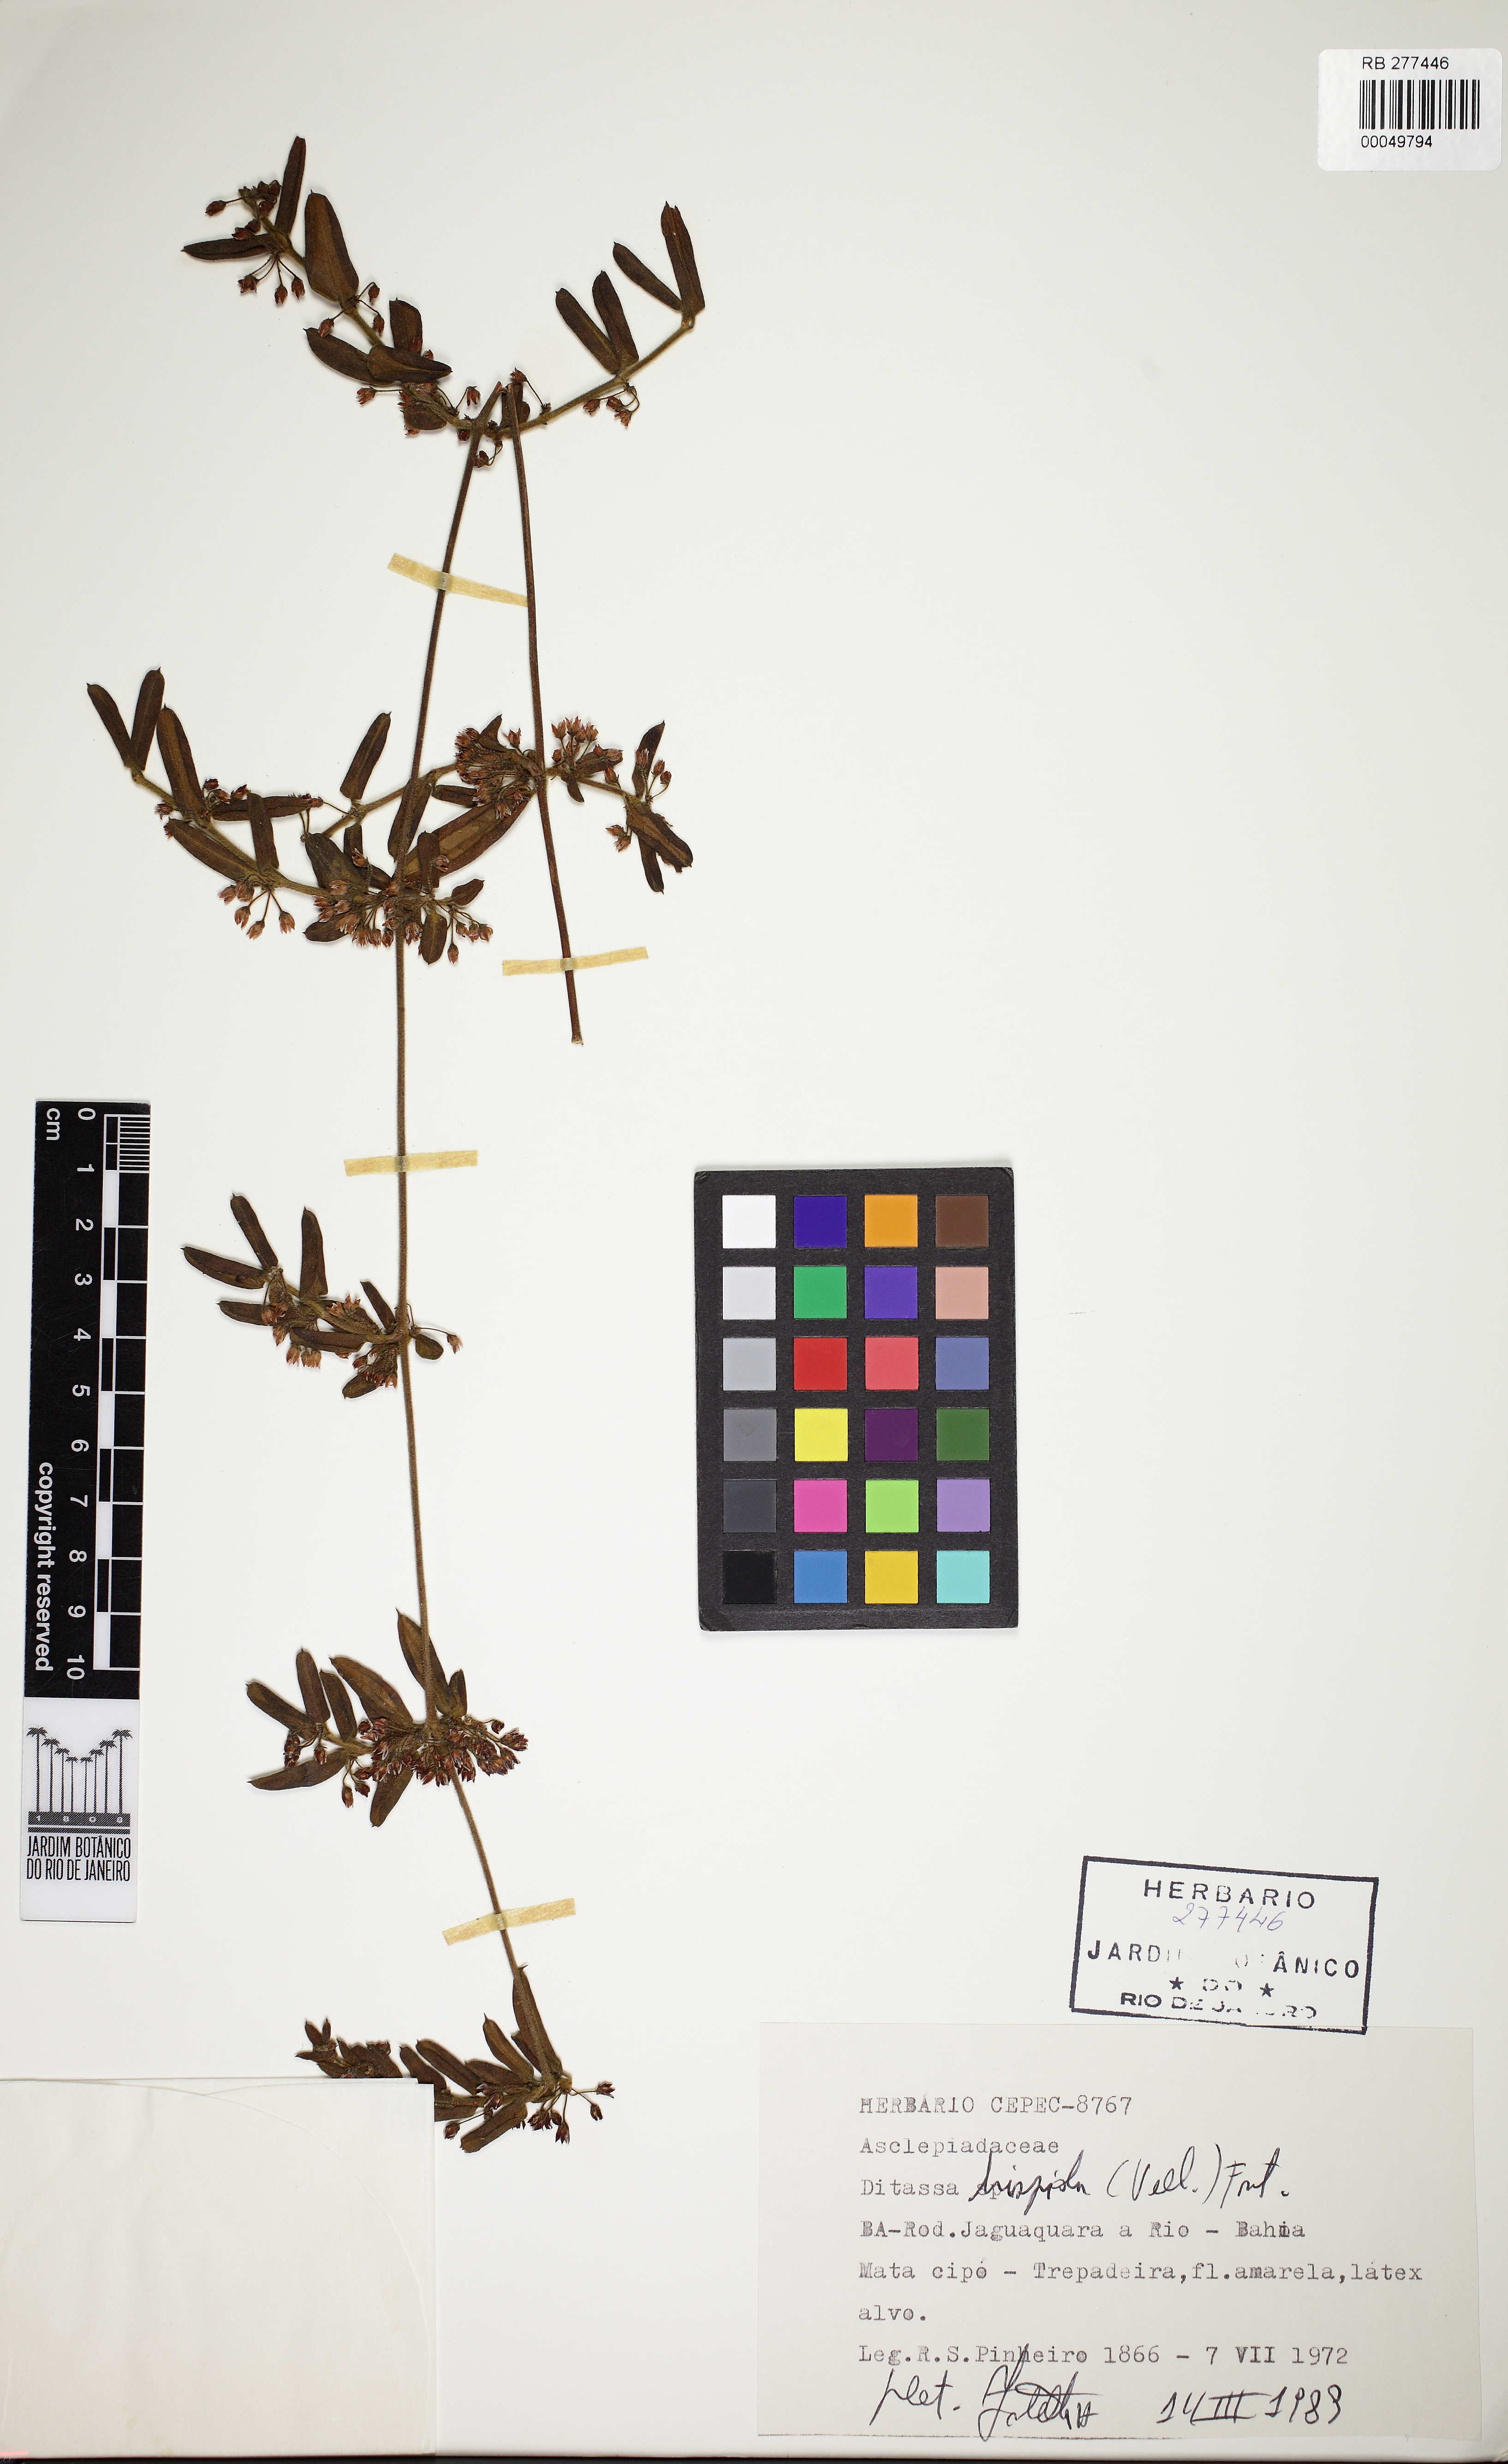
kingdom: Plantae
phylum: Tracheophyta
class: Magnoliopsida
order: Gentianales
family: Apocynaceae
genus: Ditassa
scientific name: Ditassa hispida
